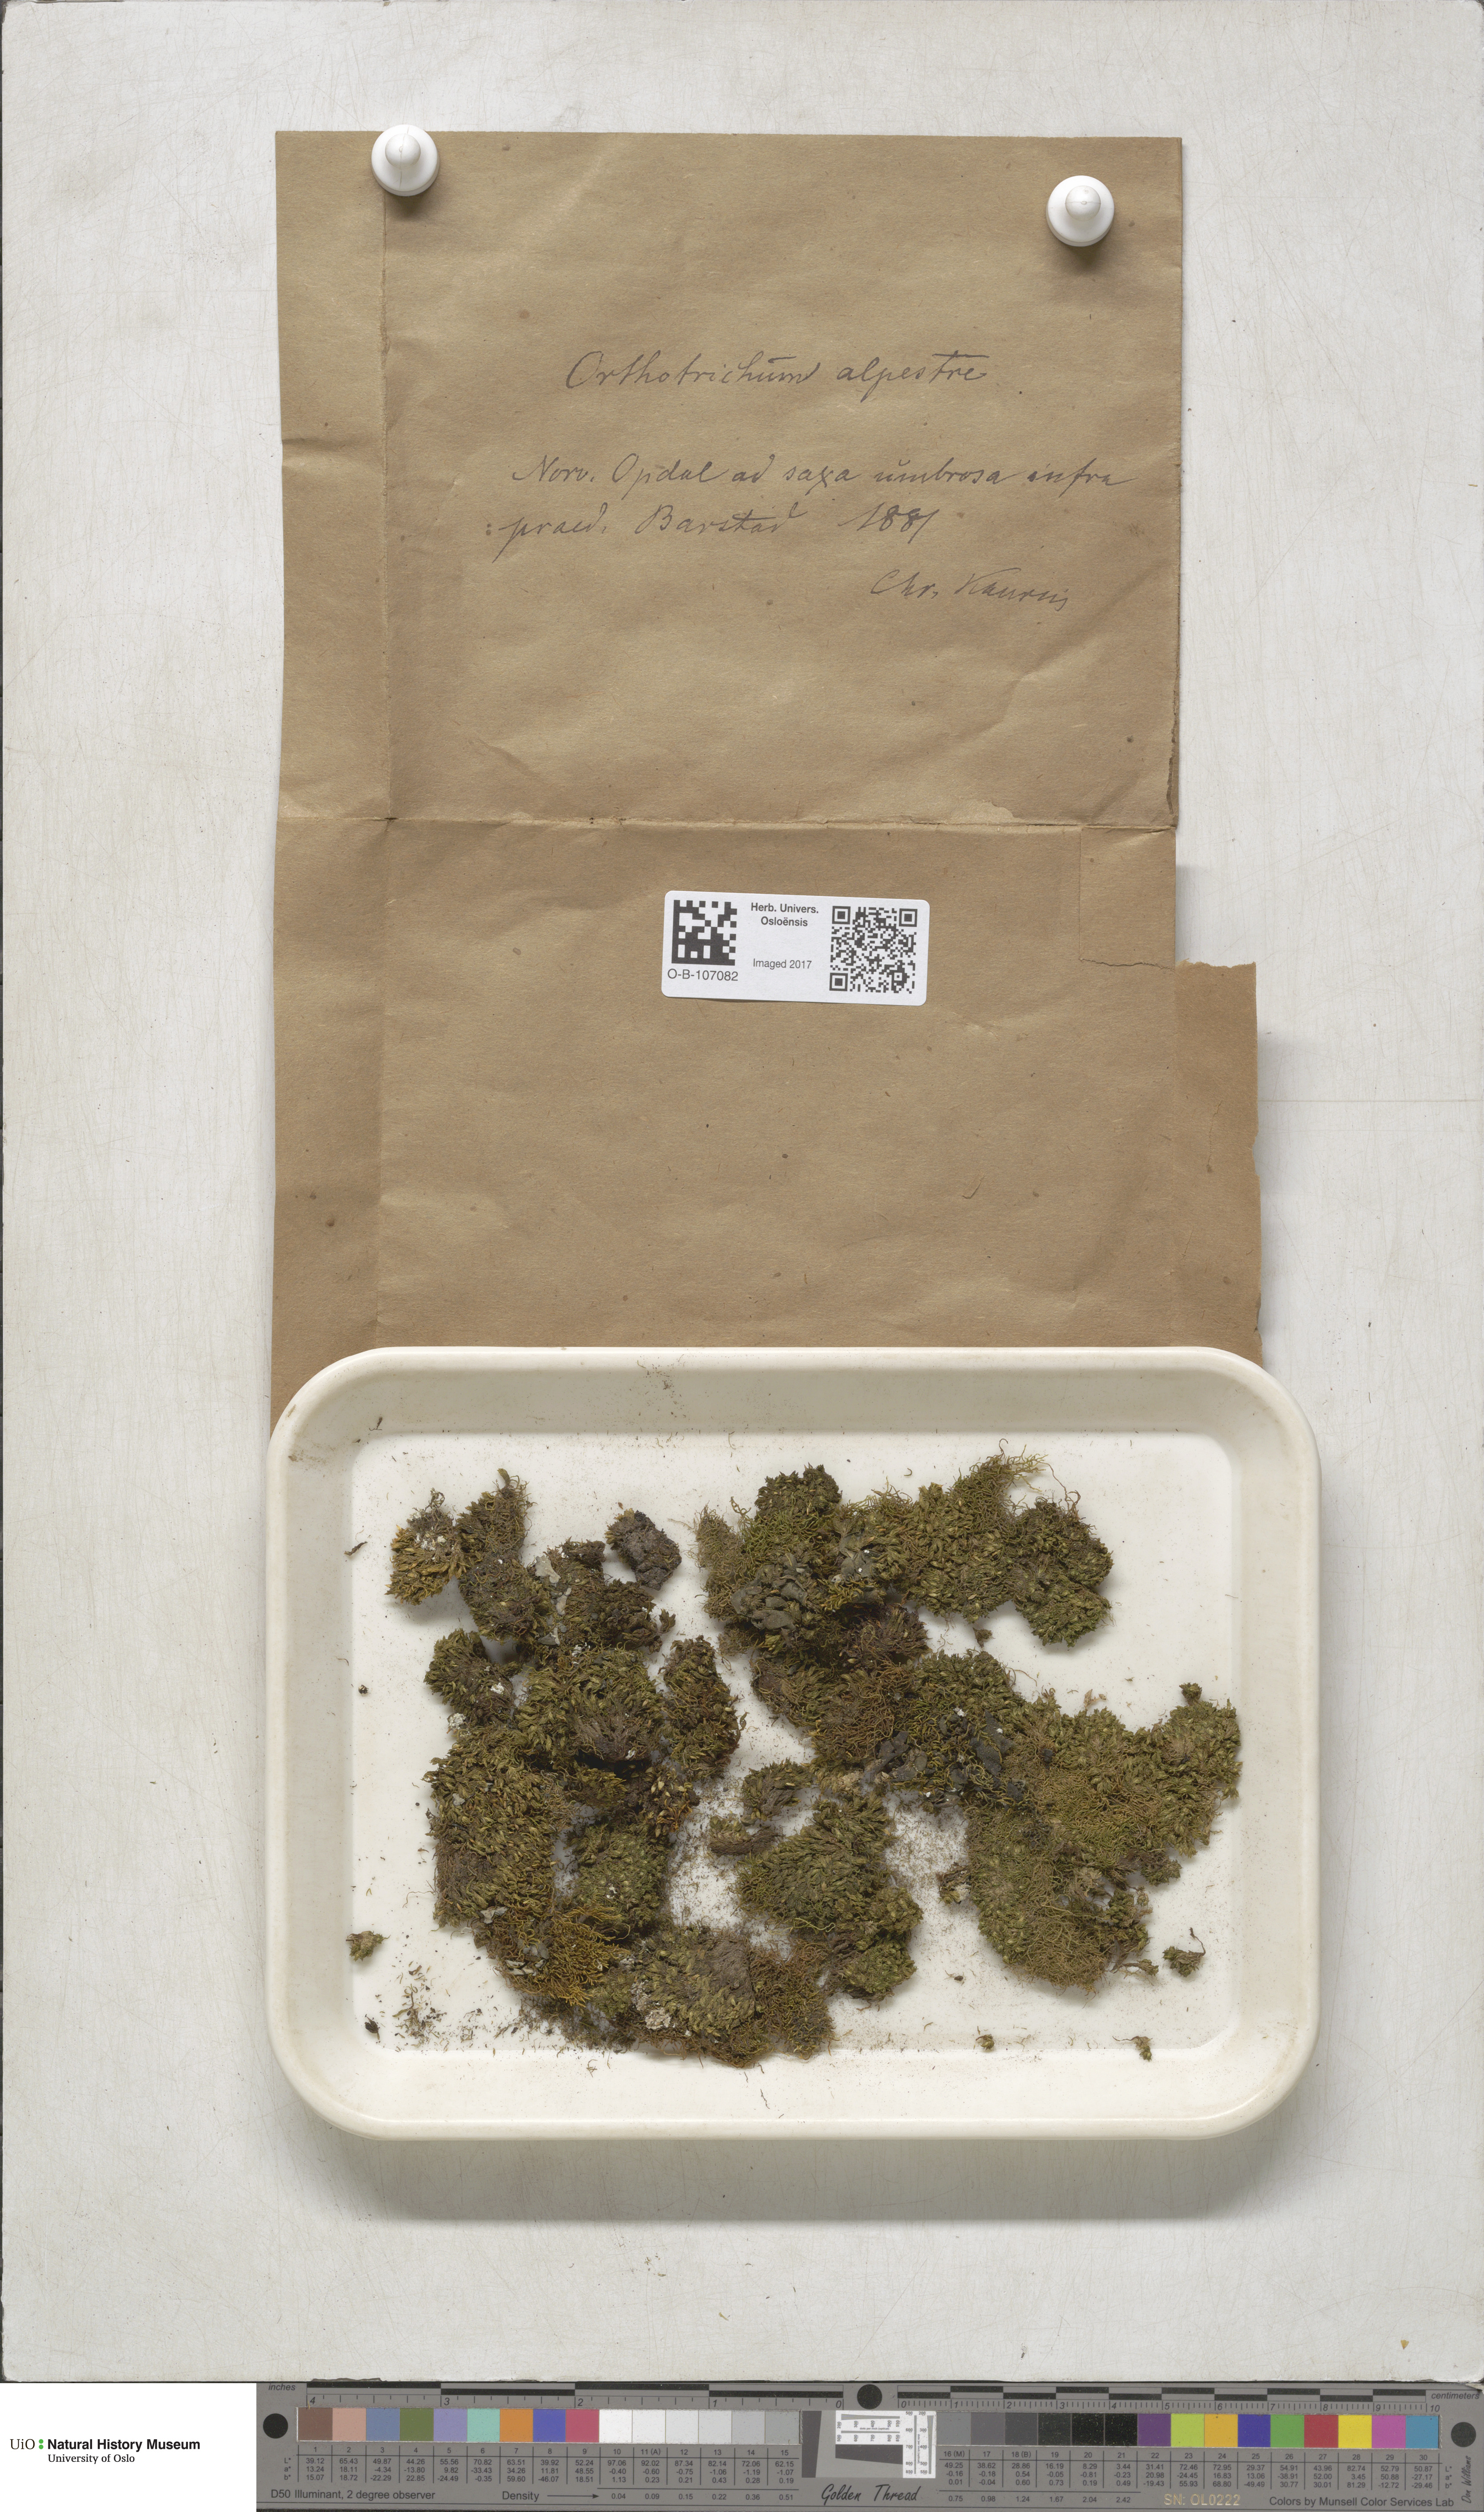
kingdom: Plantae
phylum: Bryophyta
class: Bryopsida
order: Orthotrichales
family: Orthotrichaceae
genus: Orthotrichum
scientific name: Orthotrichum alpestre
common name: Sharp-leaved bristle moss
